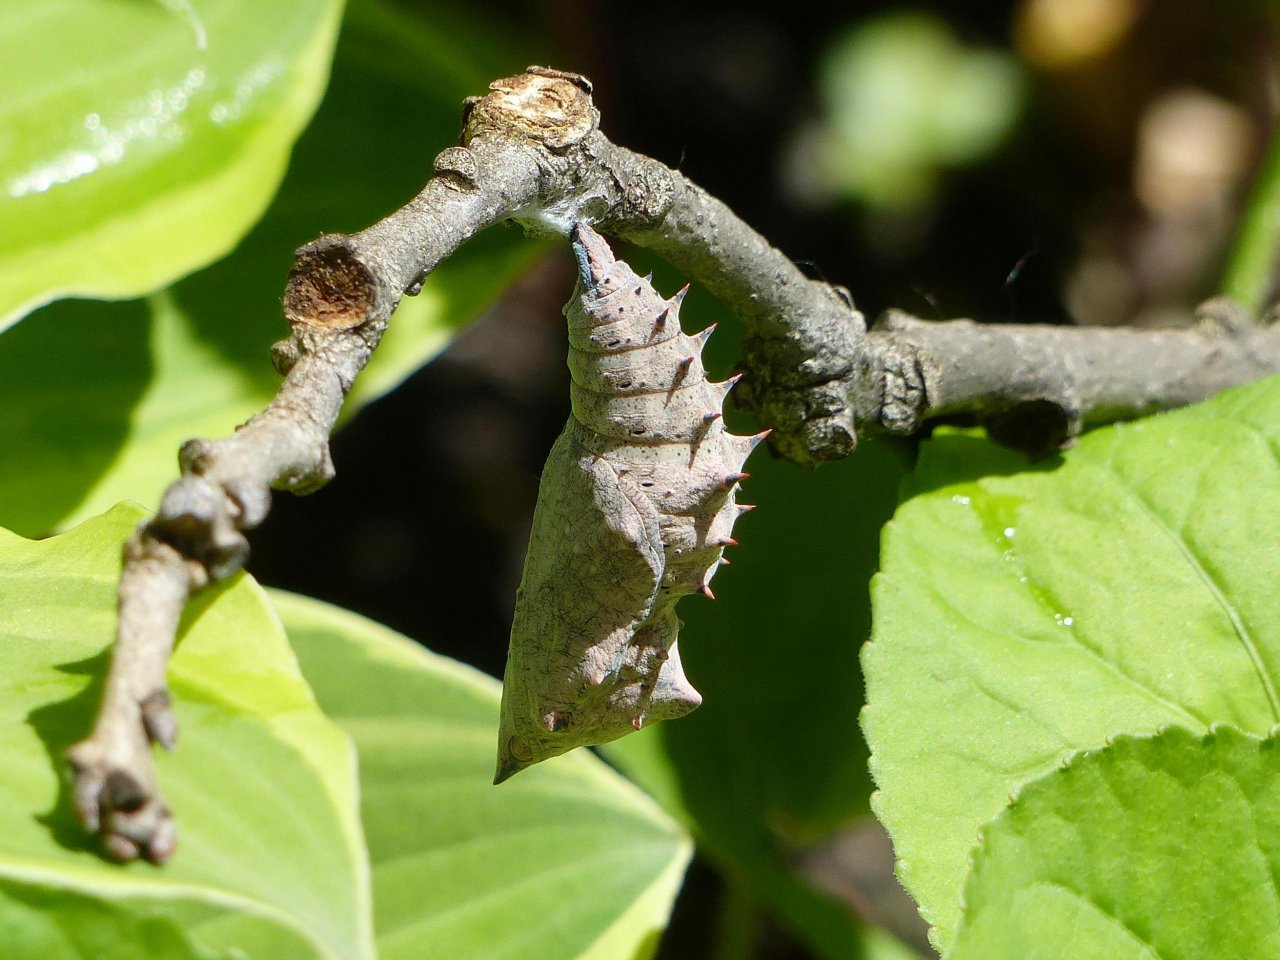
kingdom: Animalia
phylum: Arthropoda
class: Insecta
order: Lepidoptera
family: Nymphalidae
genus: Nymphalis
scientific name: Nymphalis antiopa
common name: Mourning Cloak
